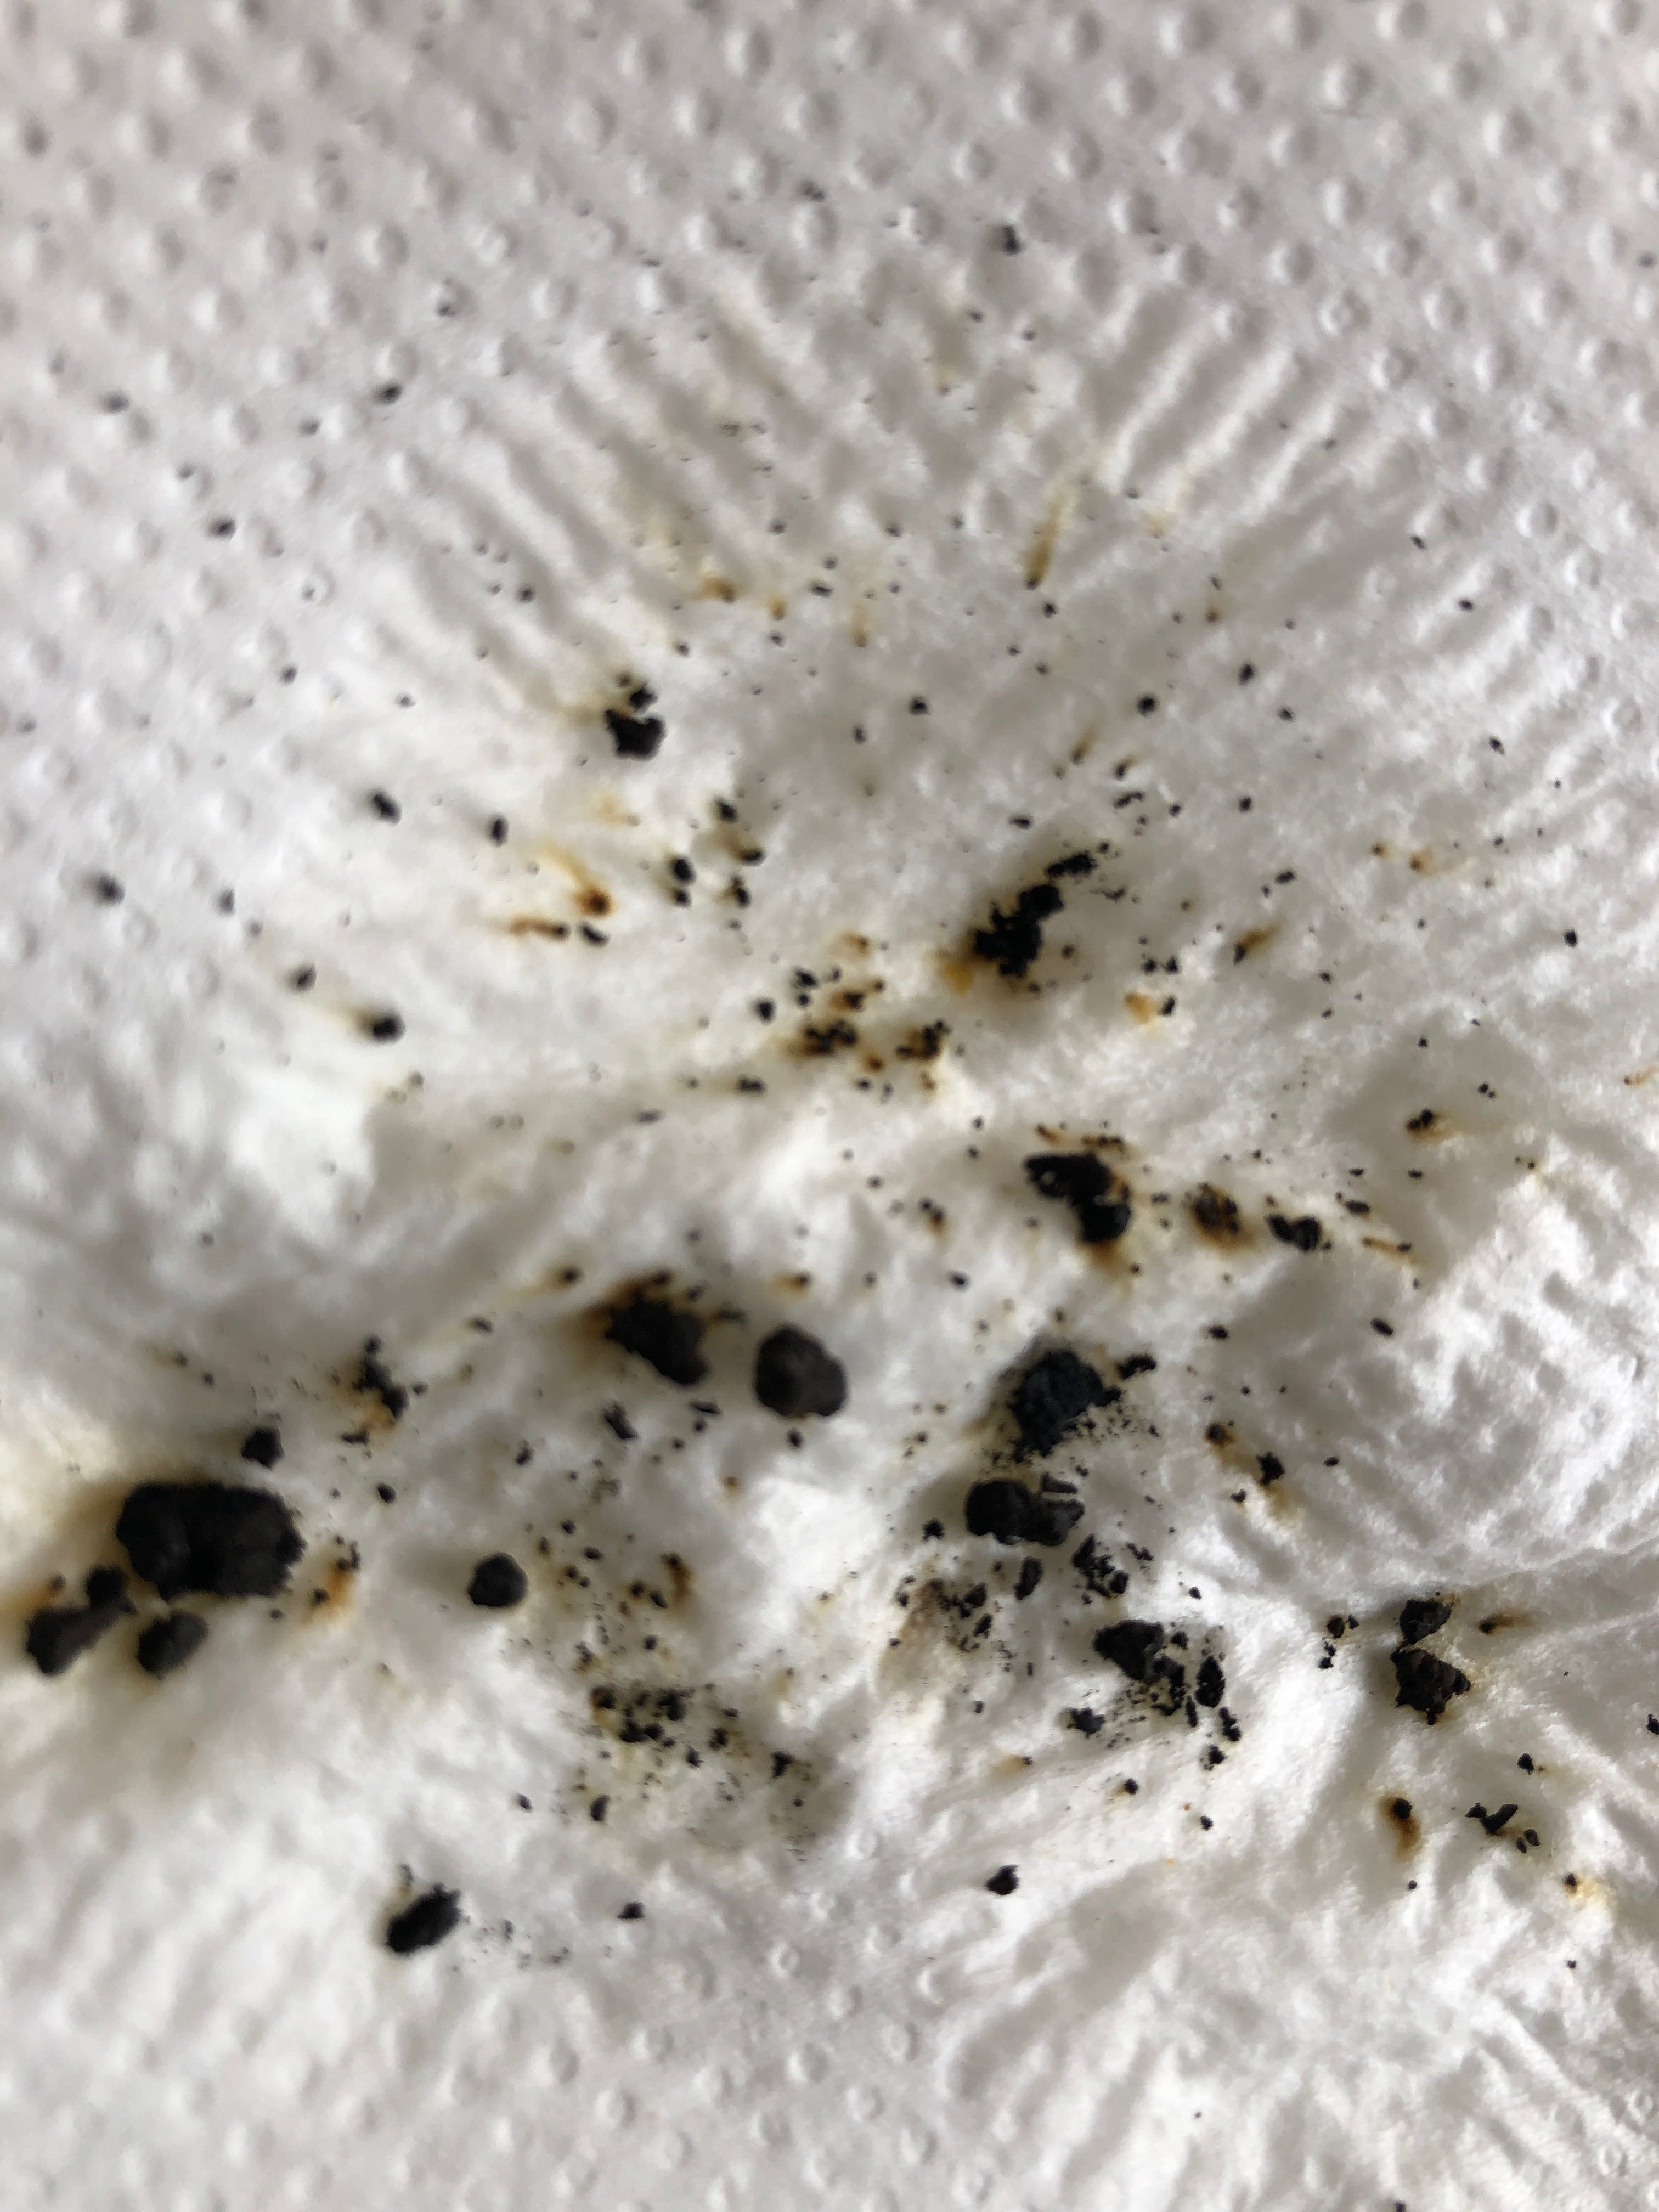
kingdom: Fungi
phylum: Ascomycota
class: Sordariomycetes
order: Xylariales
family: Hypoxylaceae
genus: Jackrogersella
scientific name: Jackrogersella multiformis
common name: foranderlig kulbær
